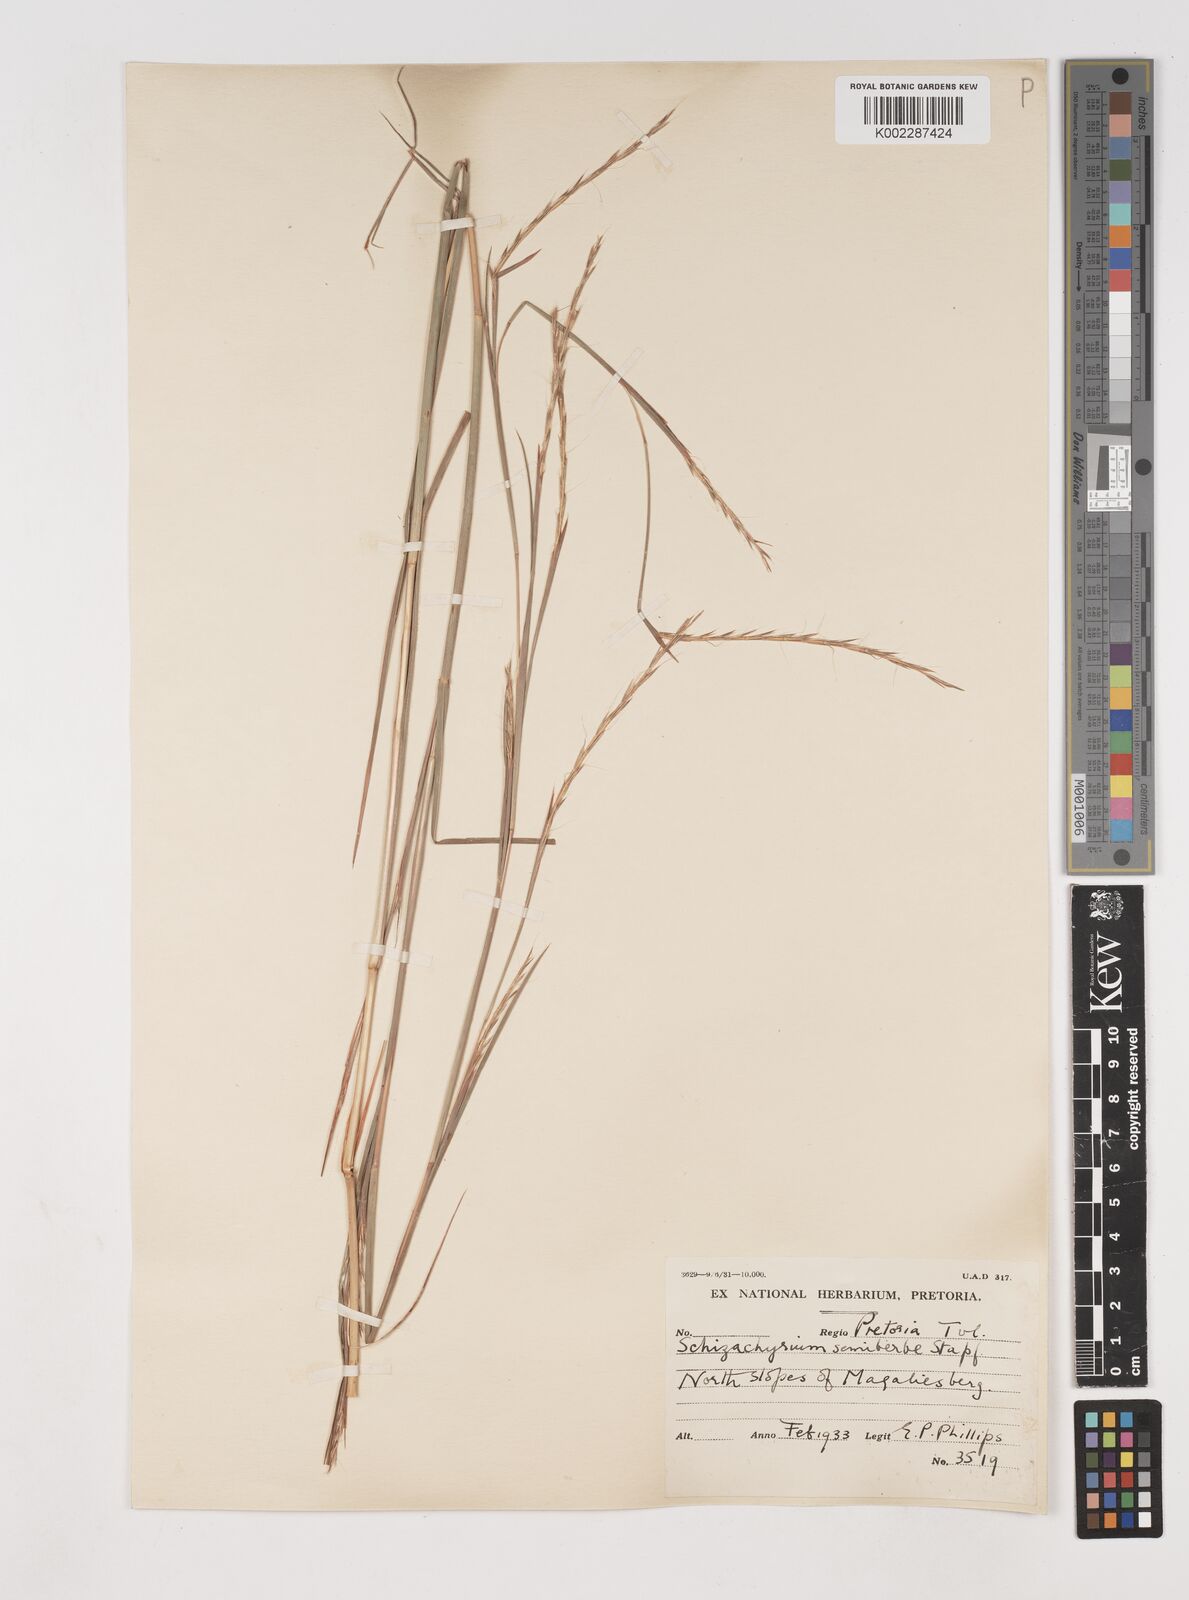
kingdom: Plantae
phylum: Tracheophyta
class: Liliopsida
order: Poales
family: Poaceae
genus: Schizachyrium
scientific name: Schizachyrium sanguineum
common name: Crimson bluestem
